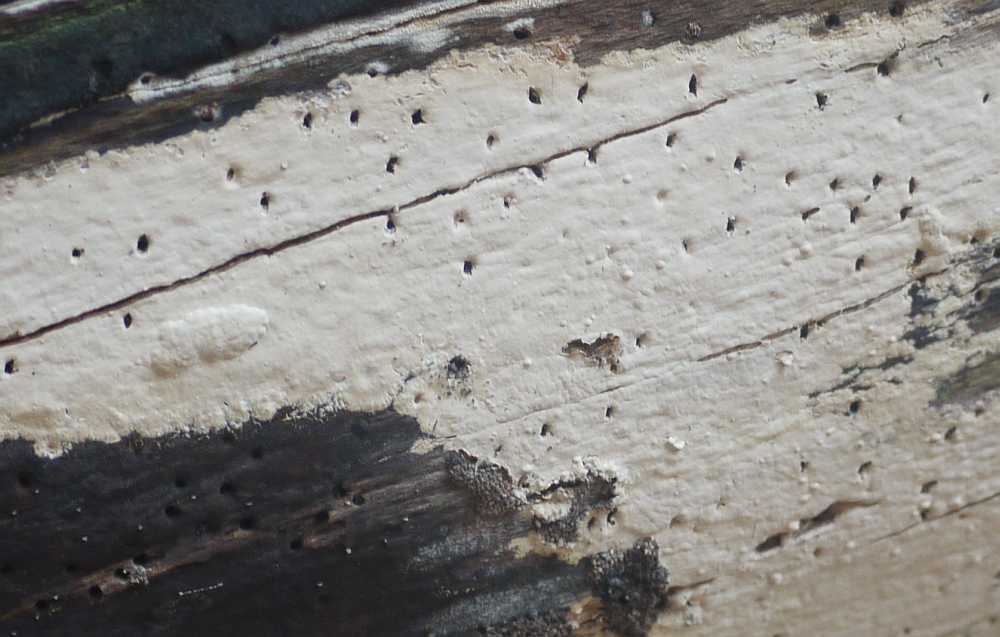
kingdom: Fungi
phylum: Basidiomycota
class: Agaricomycetes
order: Russulales
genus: Gloeohypochnicium
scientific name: Gloeohypochnicium analogum
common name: frugt-kalkskind
